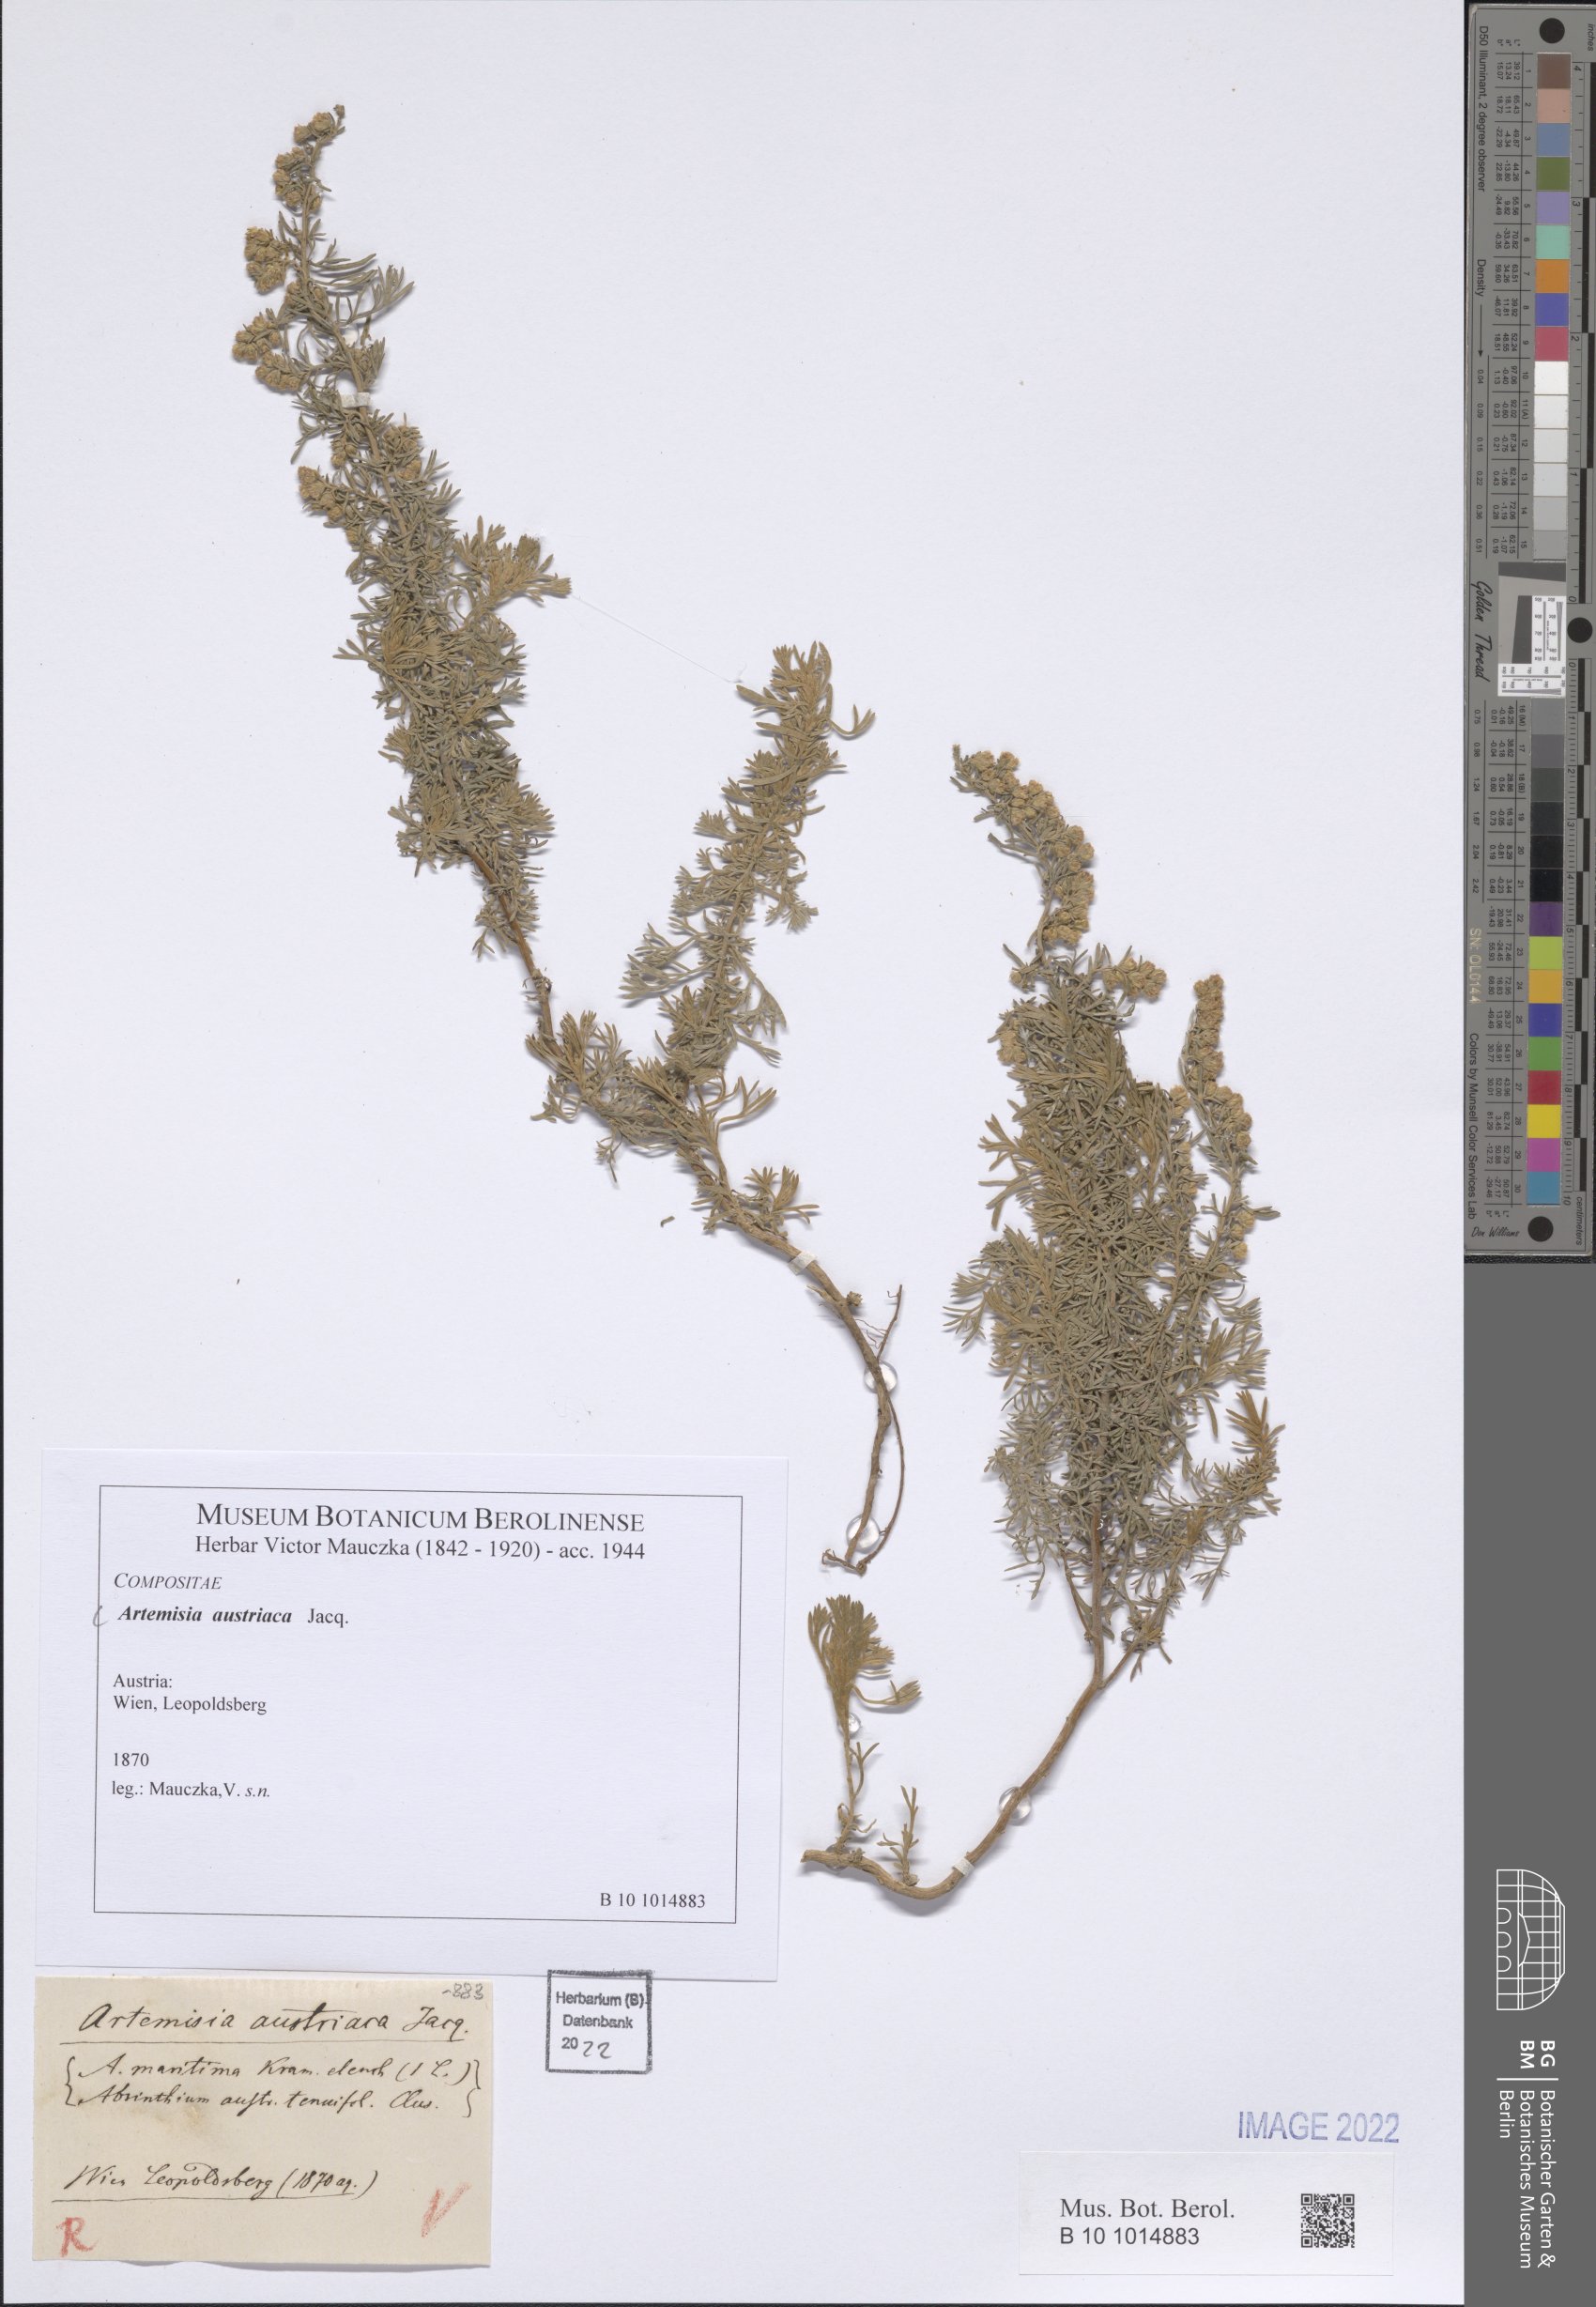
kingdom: Plantae
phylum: Tracheophyta
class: Magnoliopsida
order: Asterales
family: Asteraceae
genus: Artemisia
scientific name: Artemisia austriaca
